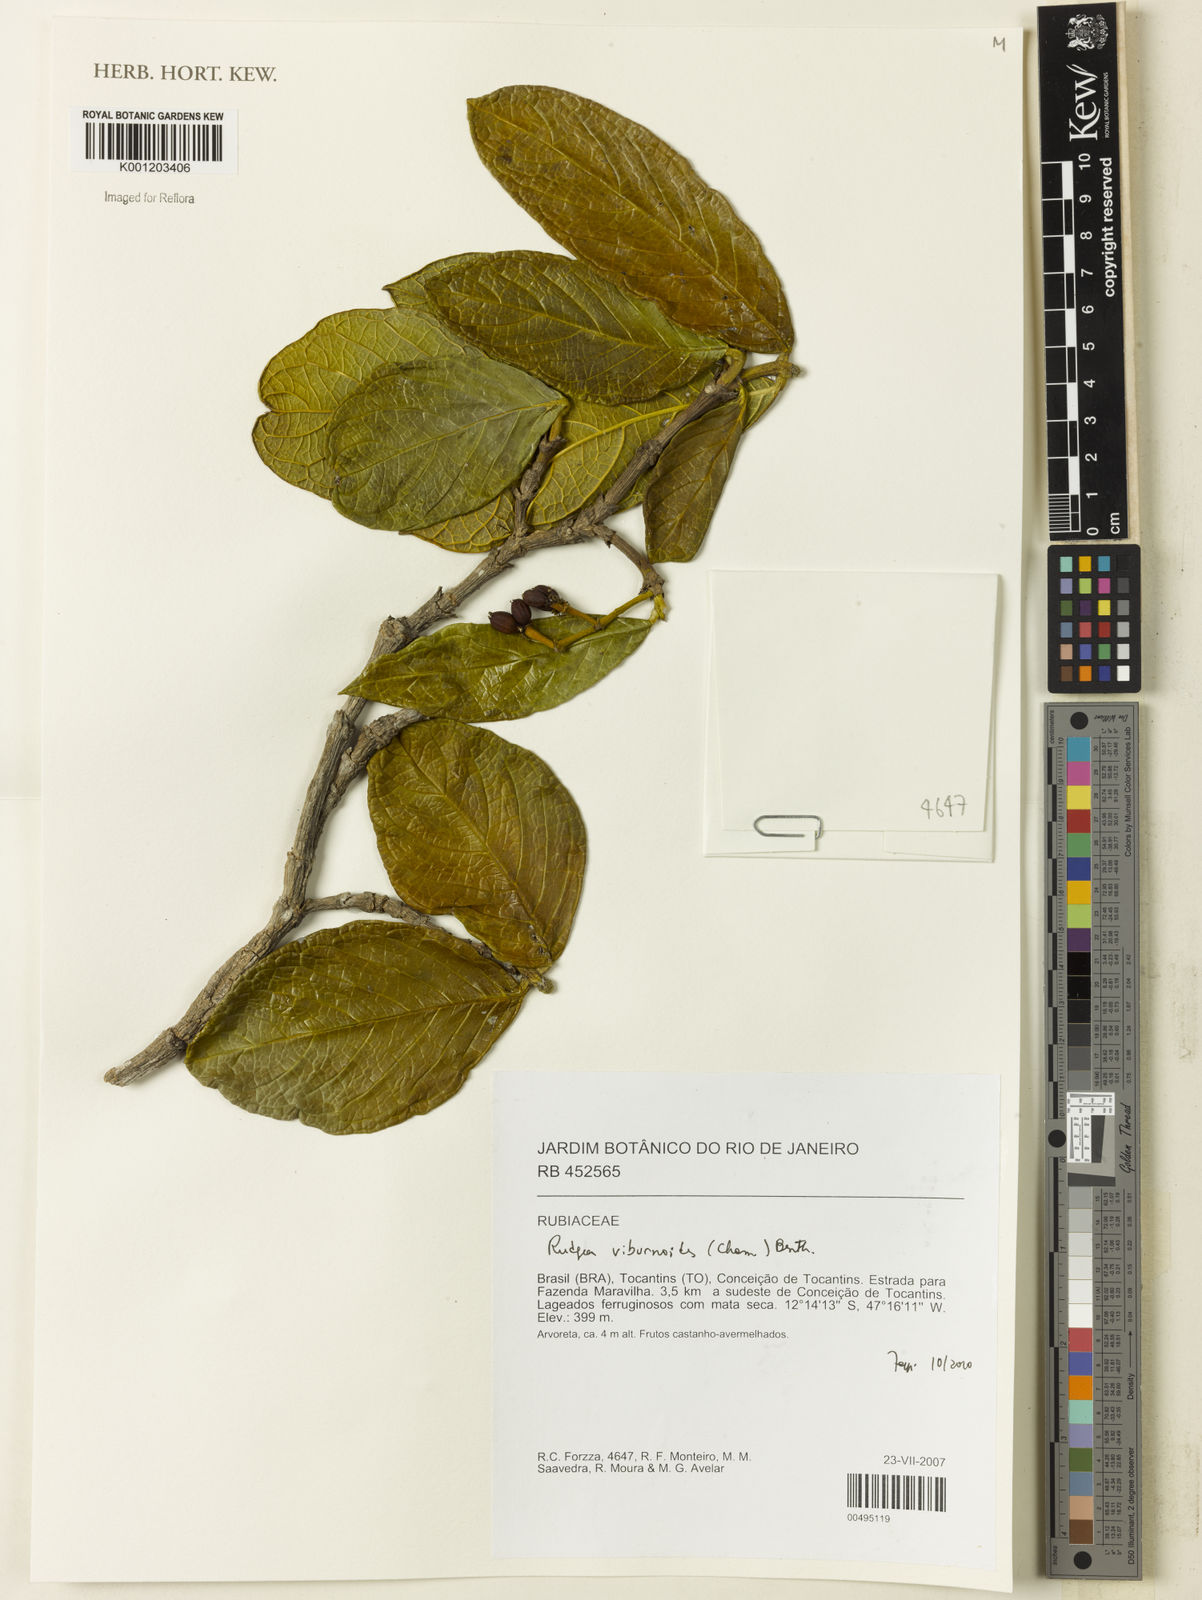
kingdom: Plantae
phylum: Tracheophyta
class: Magnoliopsida
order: Gentianales
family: Rubiaceae
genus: Rudgea
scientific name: Rudgea viburnoides
